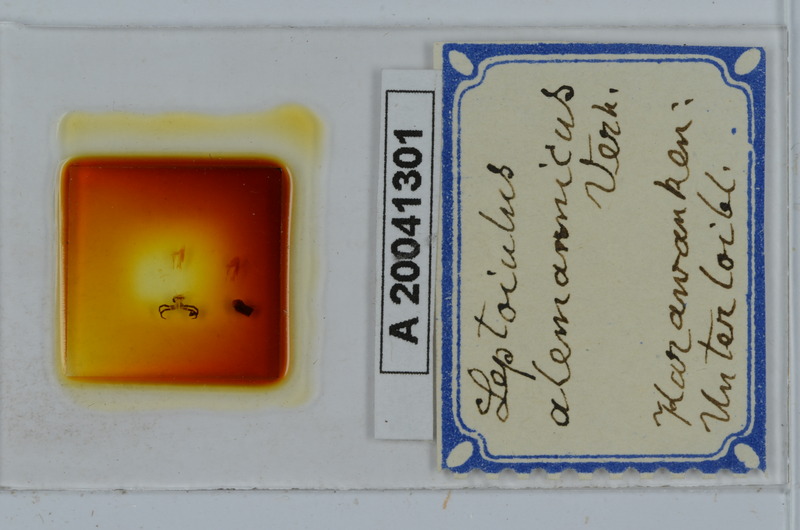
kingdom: Animalia
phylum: Arthropoda
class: Diplopoda
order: Julida
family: Julidae
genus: Leptoiulus
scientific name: Leptoiulus alemannicus
